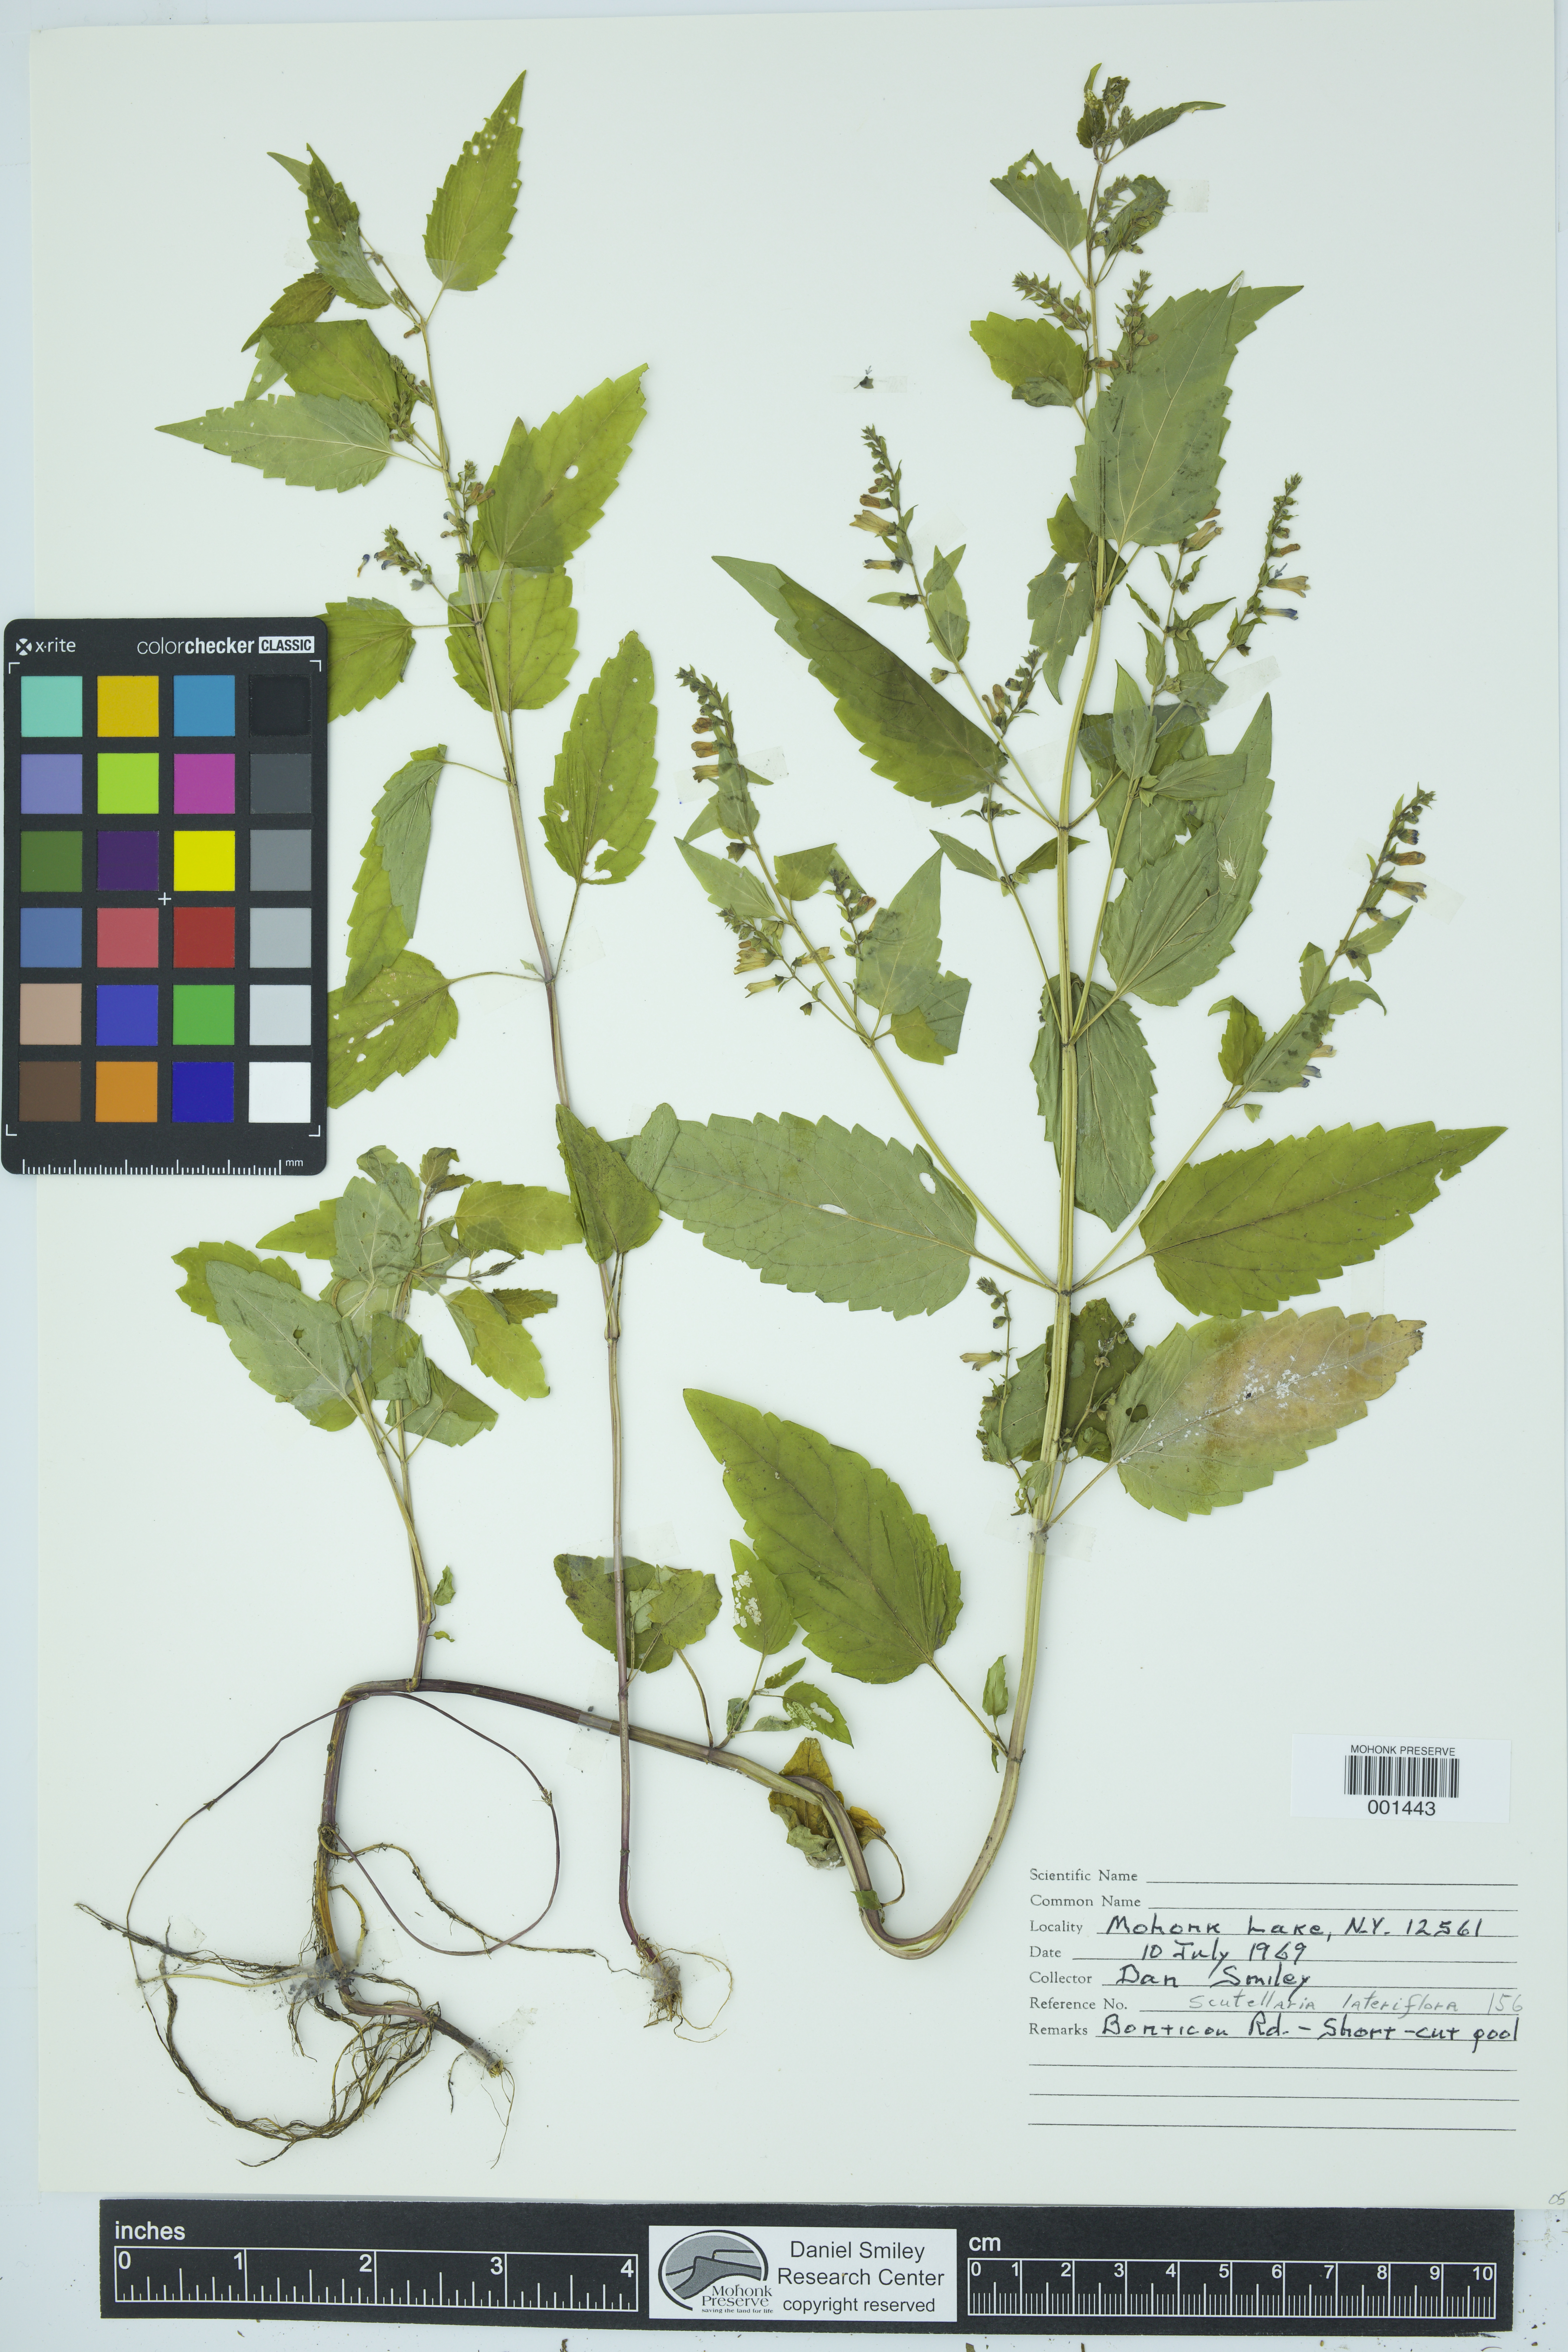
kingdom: Plantae
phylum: Tracheophyta
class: Magnoliopsida
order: Lamiales
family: Lamiaceae
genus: Scutellaria
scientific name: Scutellaria lateriflora
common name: Blue skullcap
